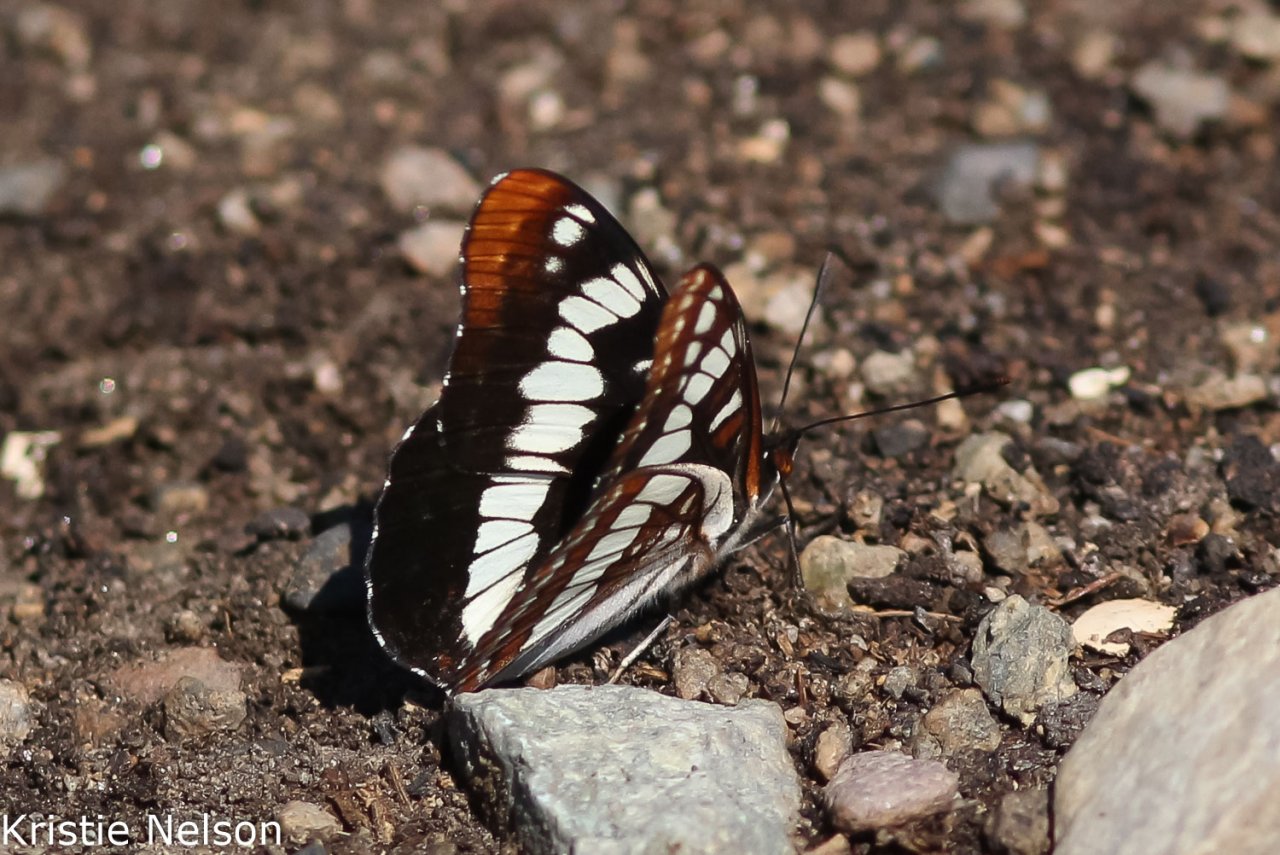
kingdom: Animalia
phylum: Arthropoda
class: Insecta
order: Lepidoptera
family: Nymphalidae
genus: Limenitis
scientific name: Limenitis
